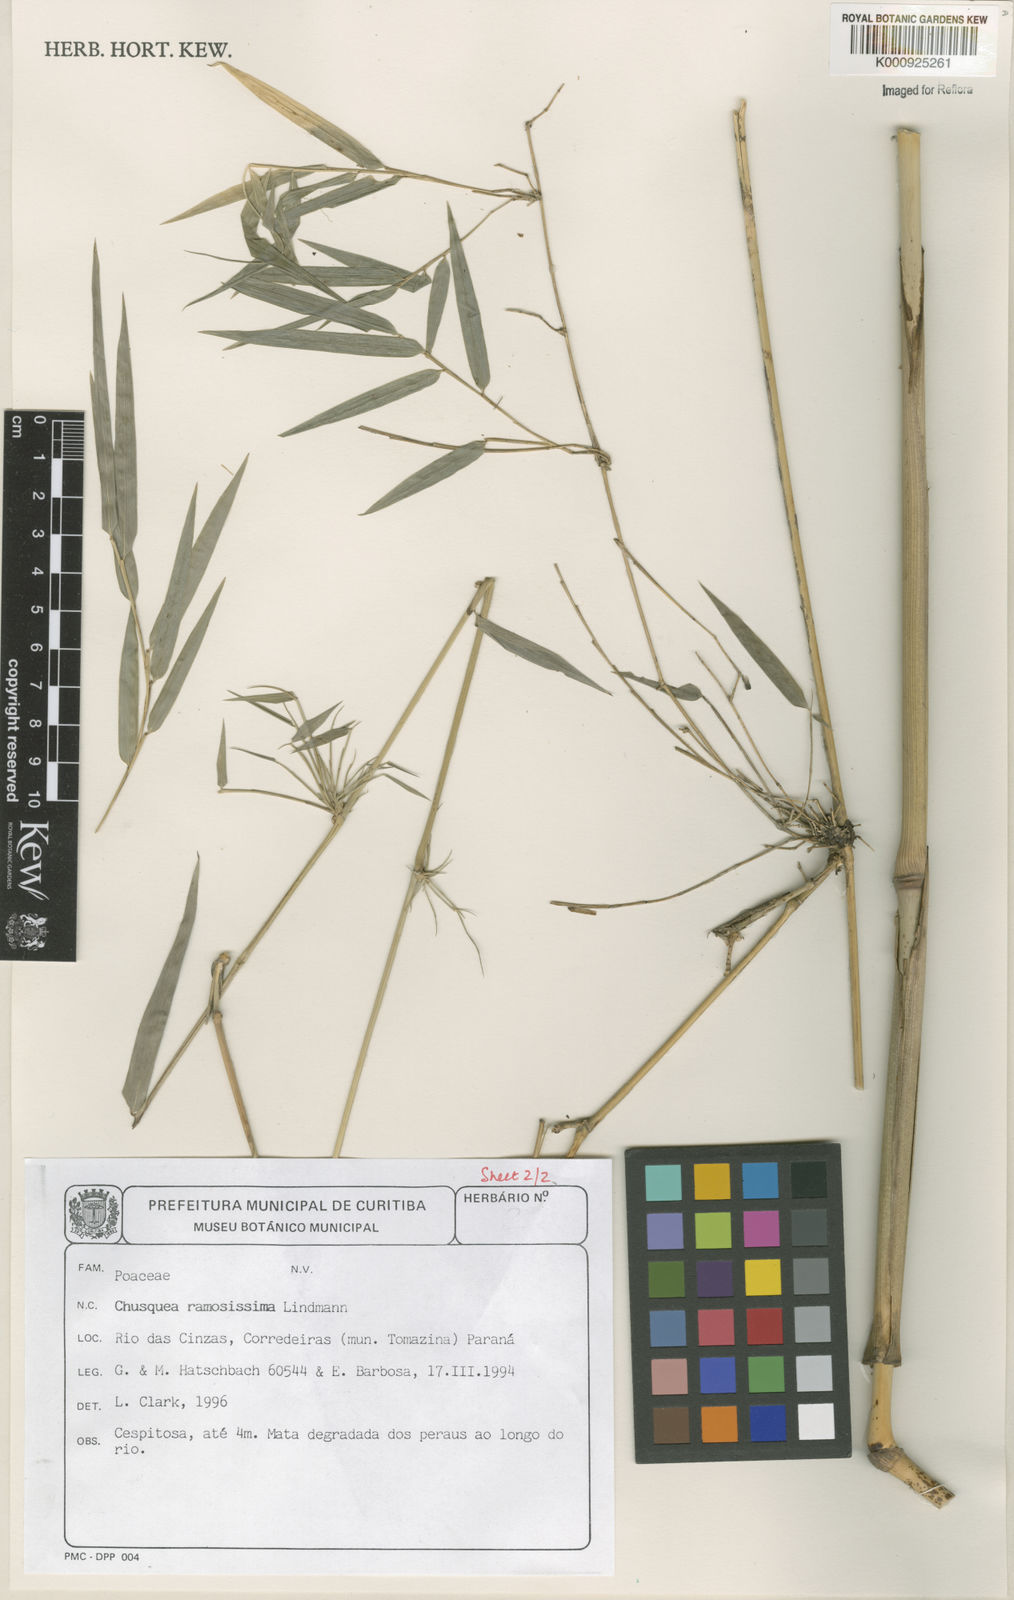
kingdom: Plantae
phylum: Tracheophyta
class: Liliopsida
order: Poales
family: Poaceae
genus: Chusquea
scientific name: Chusquea ramosissima
